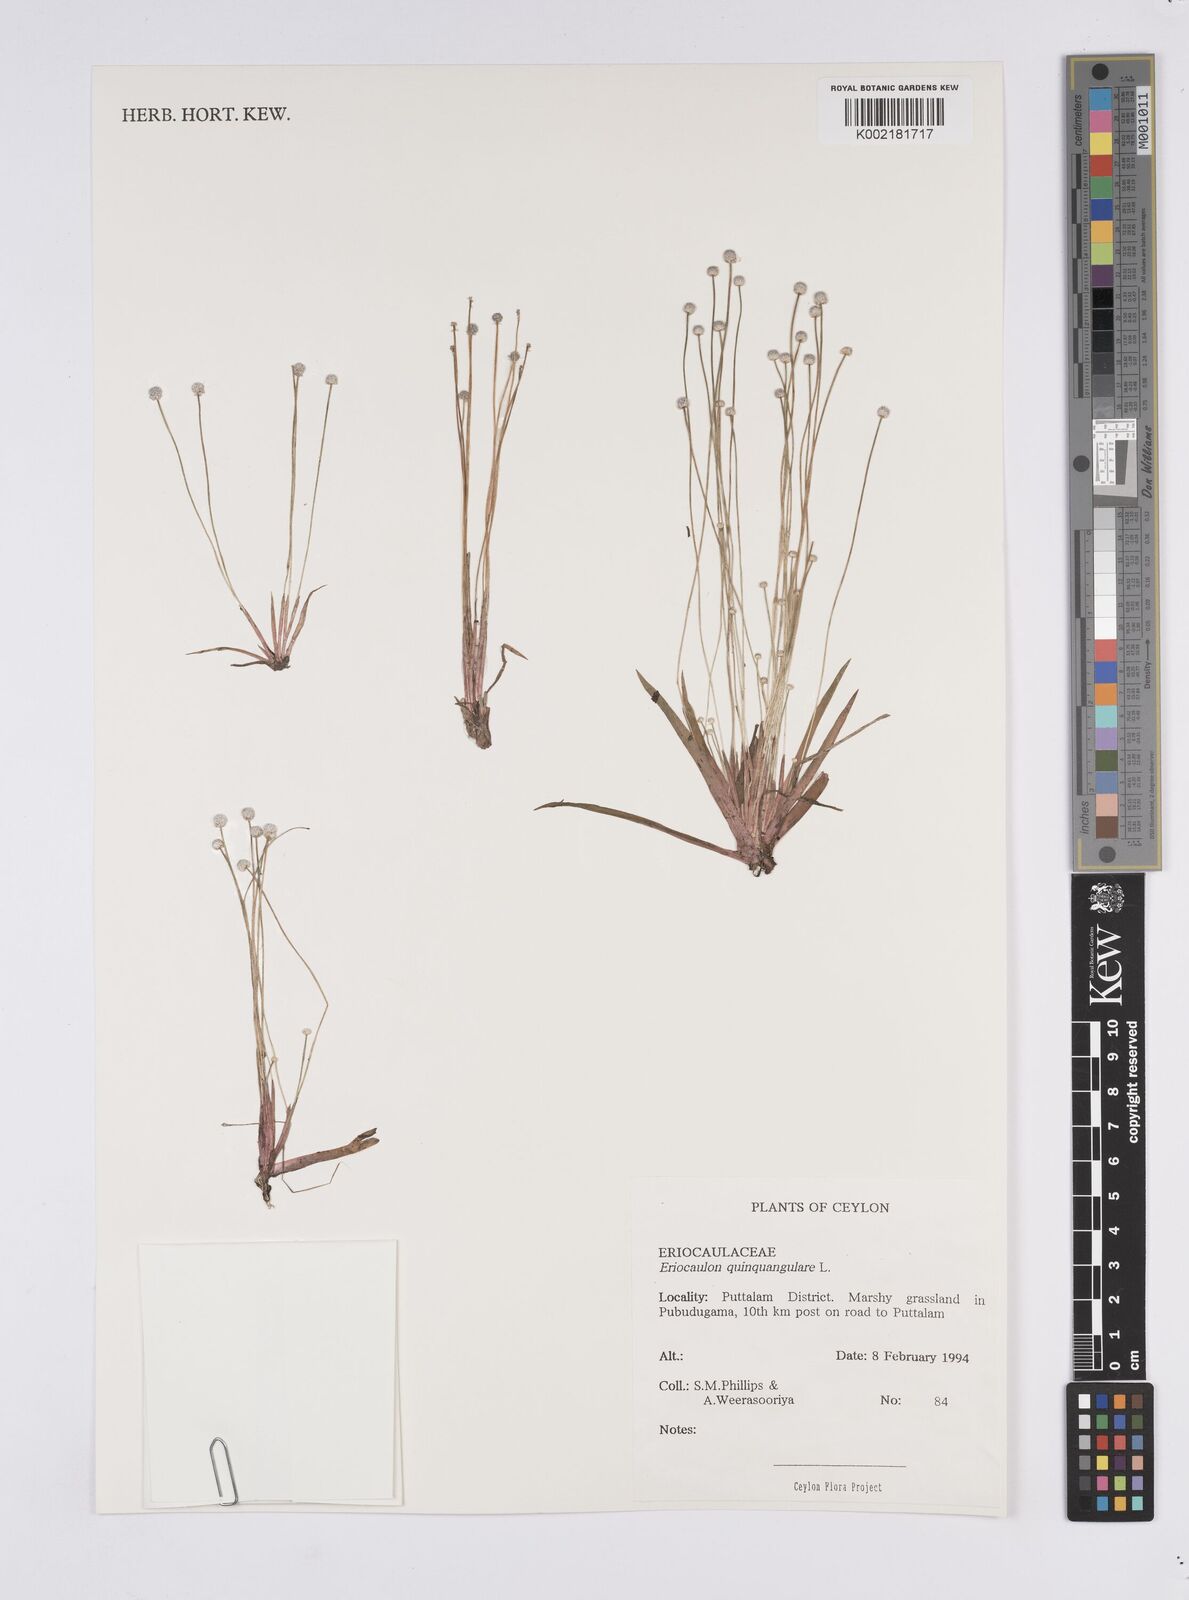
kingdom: Plantae
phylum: Tracheophyta
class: Liliopsida
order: Poales
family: Eriocaulaceae
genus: Eriocaulon
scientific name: Eriocaulon quinquangulare
